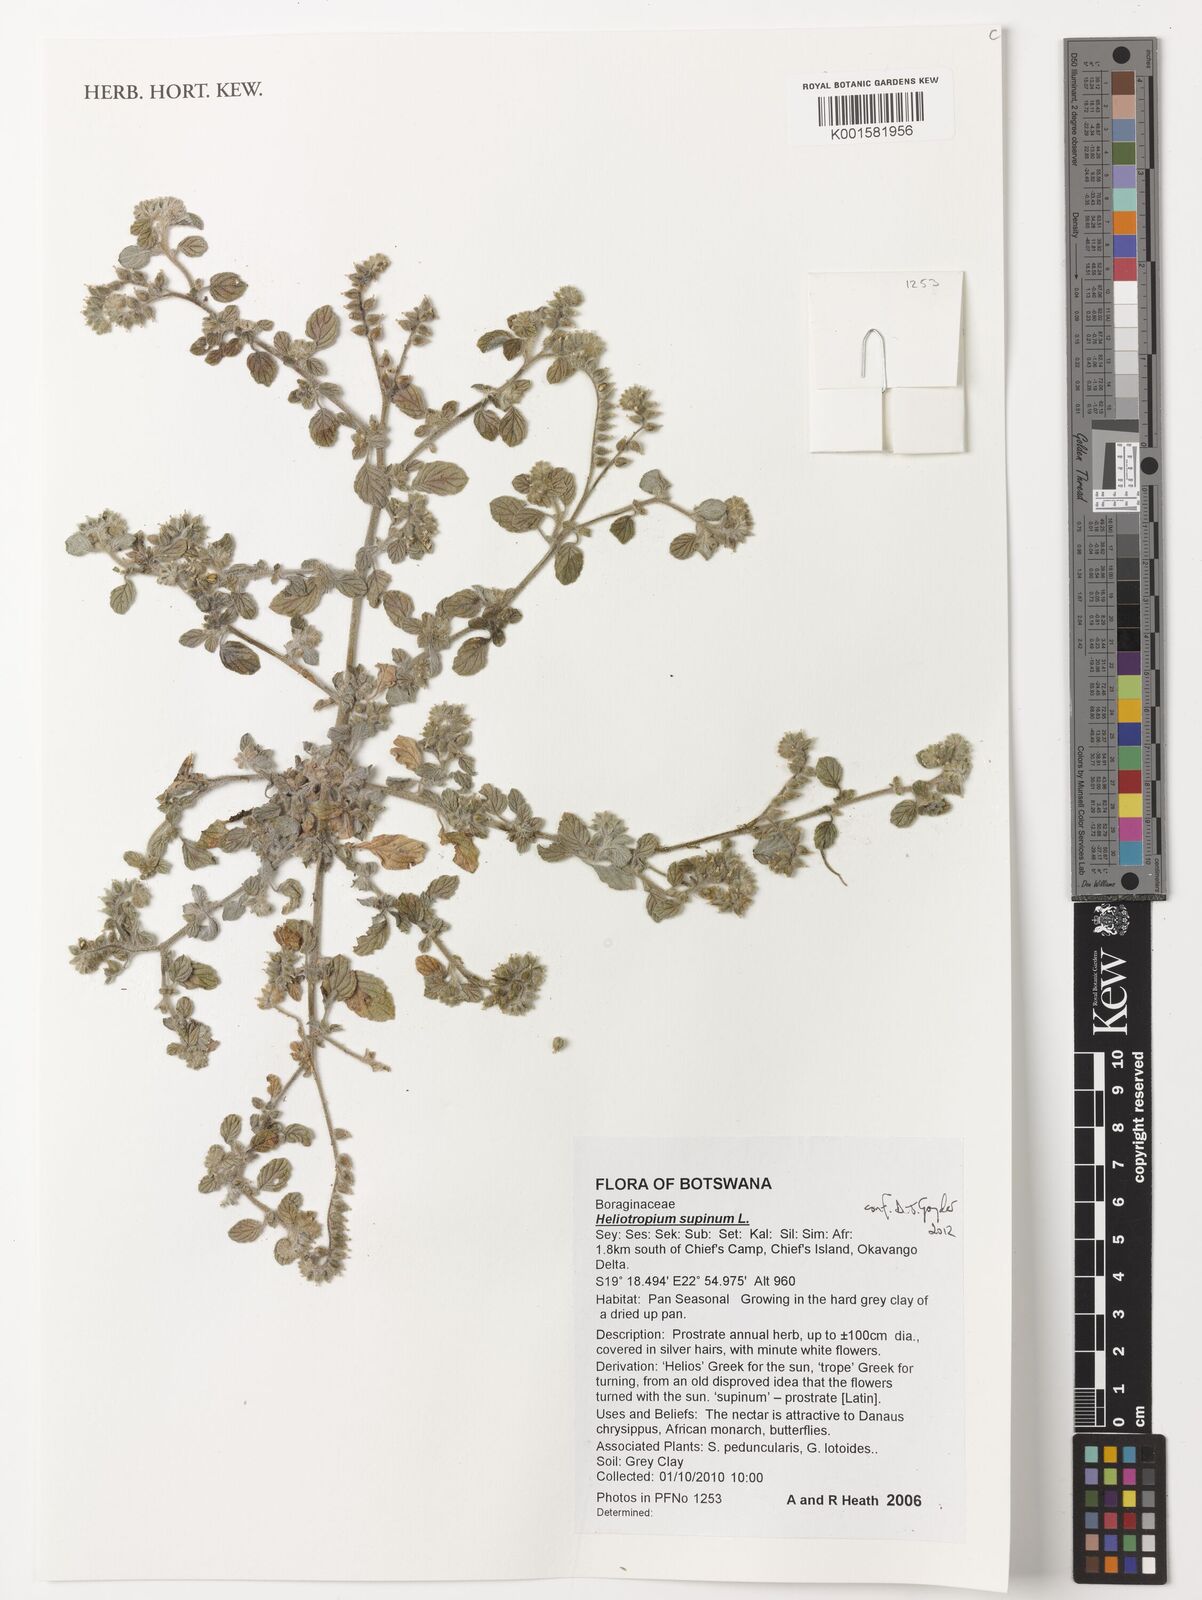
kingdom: Plantae
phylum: Tracheophyta
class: Magnoliopsida
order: Boraginales
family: Heliotropiaceae
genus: Heliotropium
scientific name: Heliotropium supinum
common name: Dwarf heliotrope
